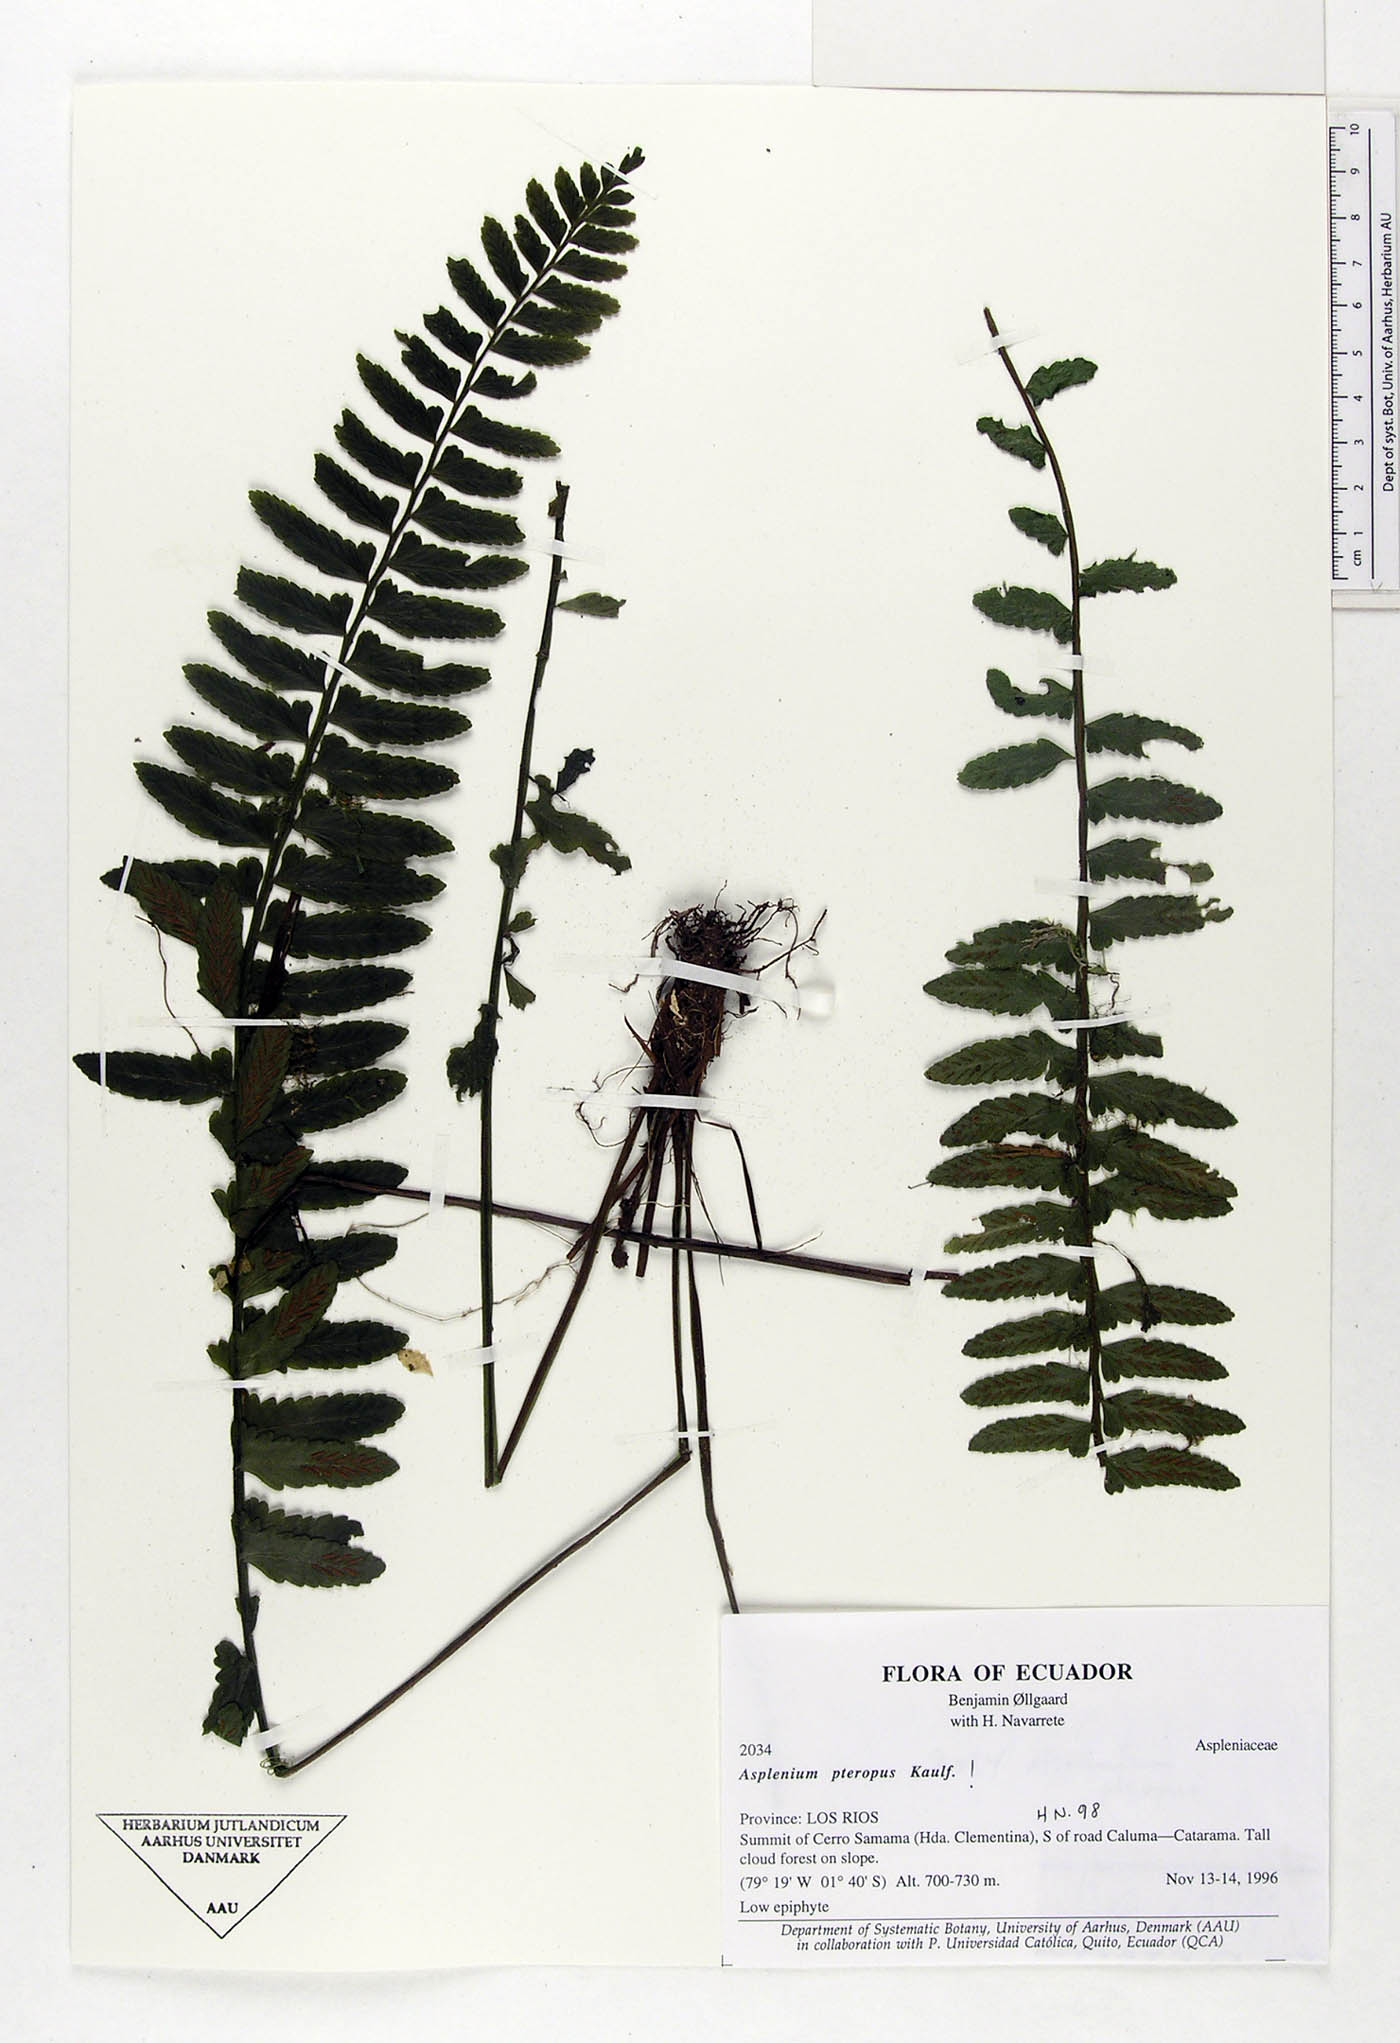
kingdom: Plantae
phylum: Tracheophyta
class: Polypodiopsida
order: Polypodiales
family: Aspleniaceae
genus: Asplenium
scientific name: Asplenium pteropus
